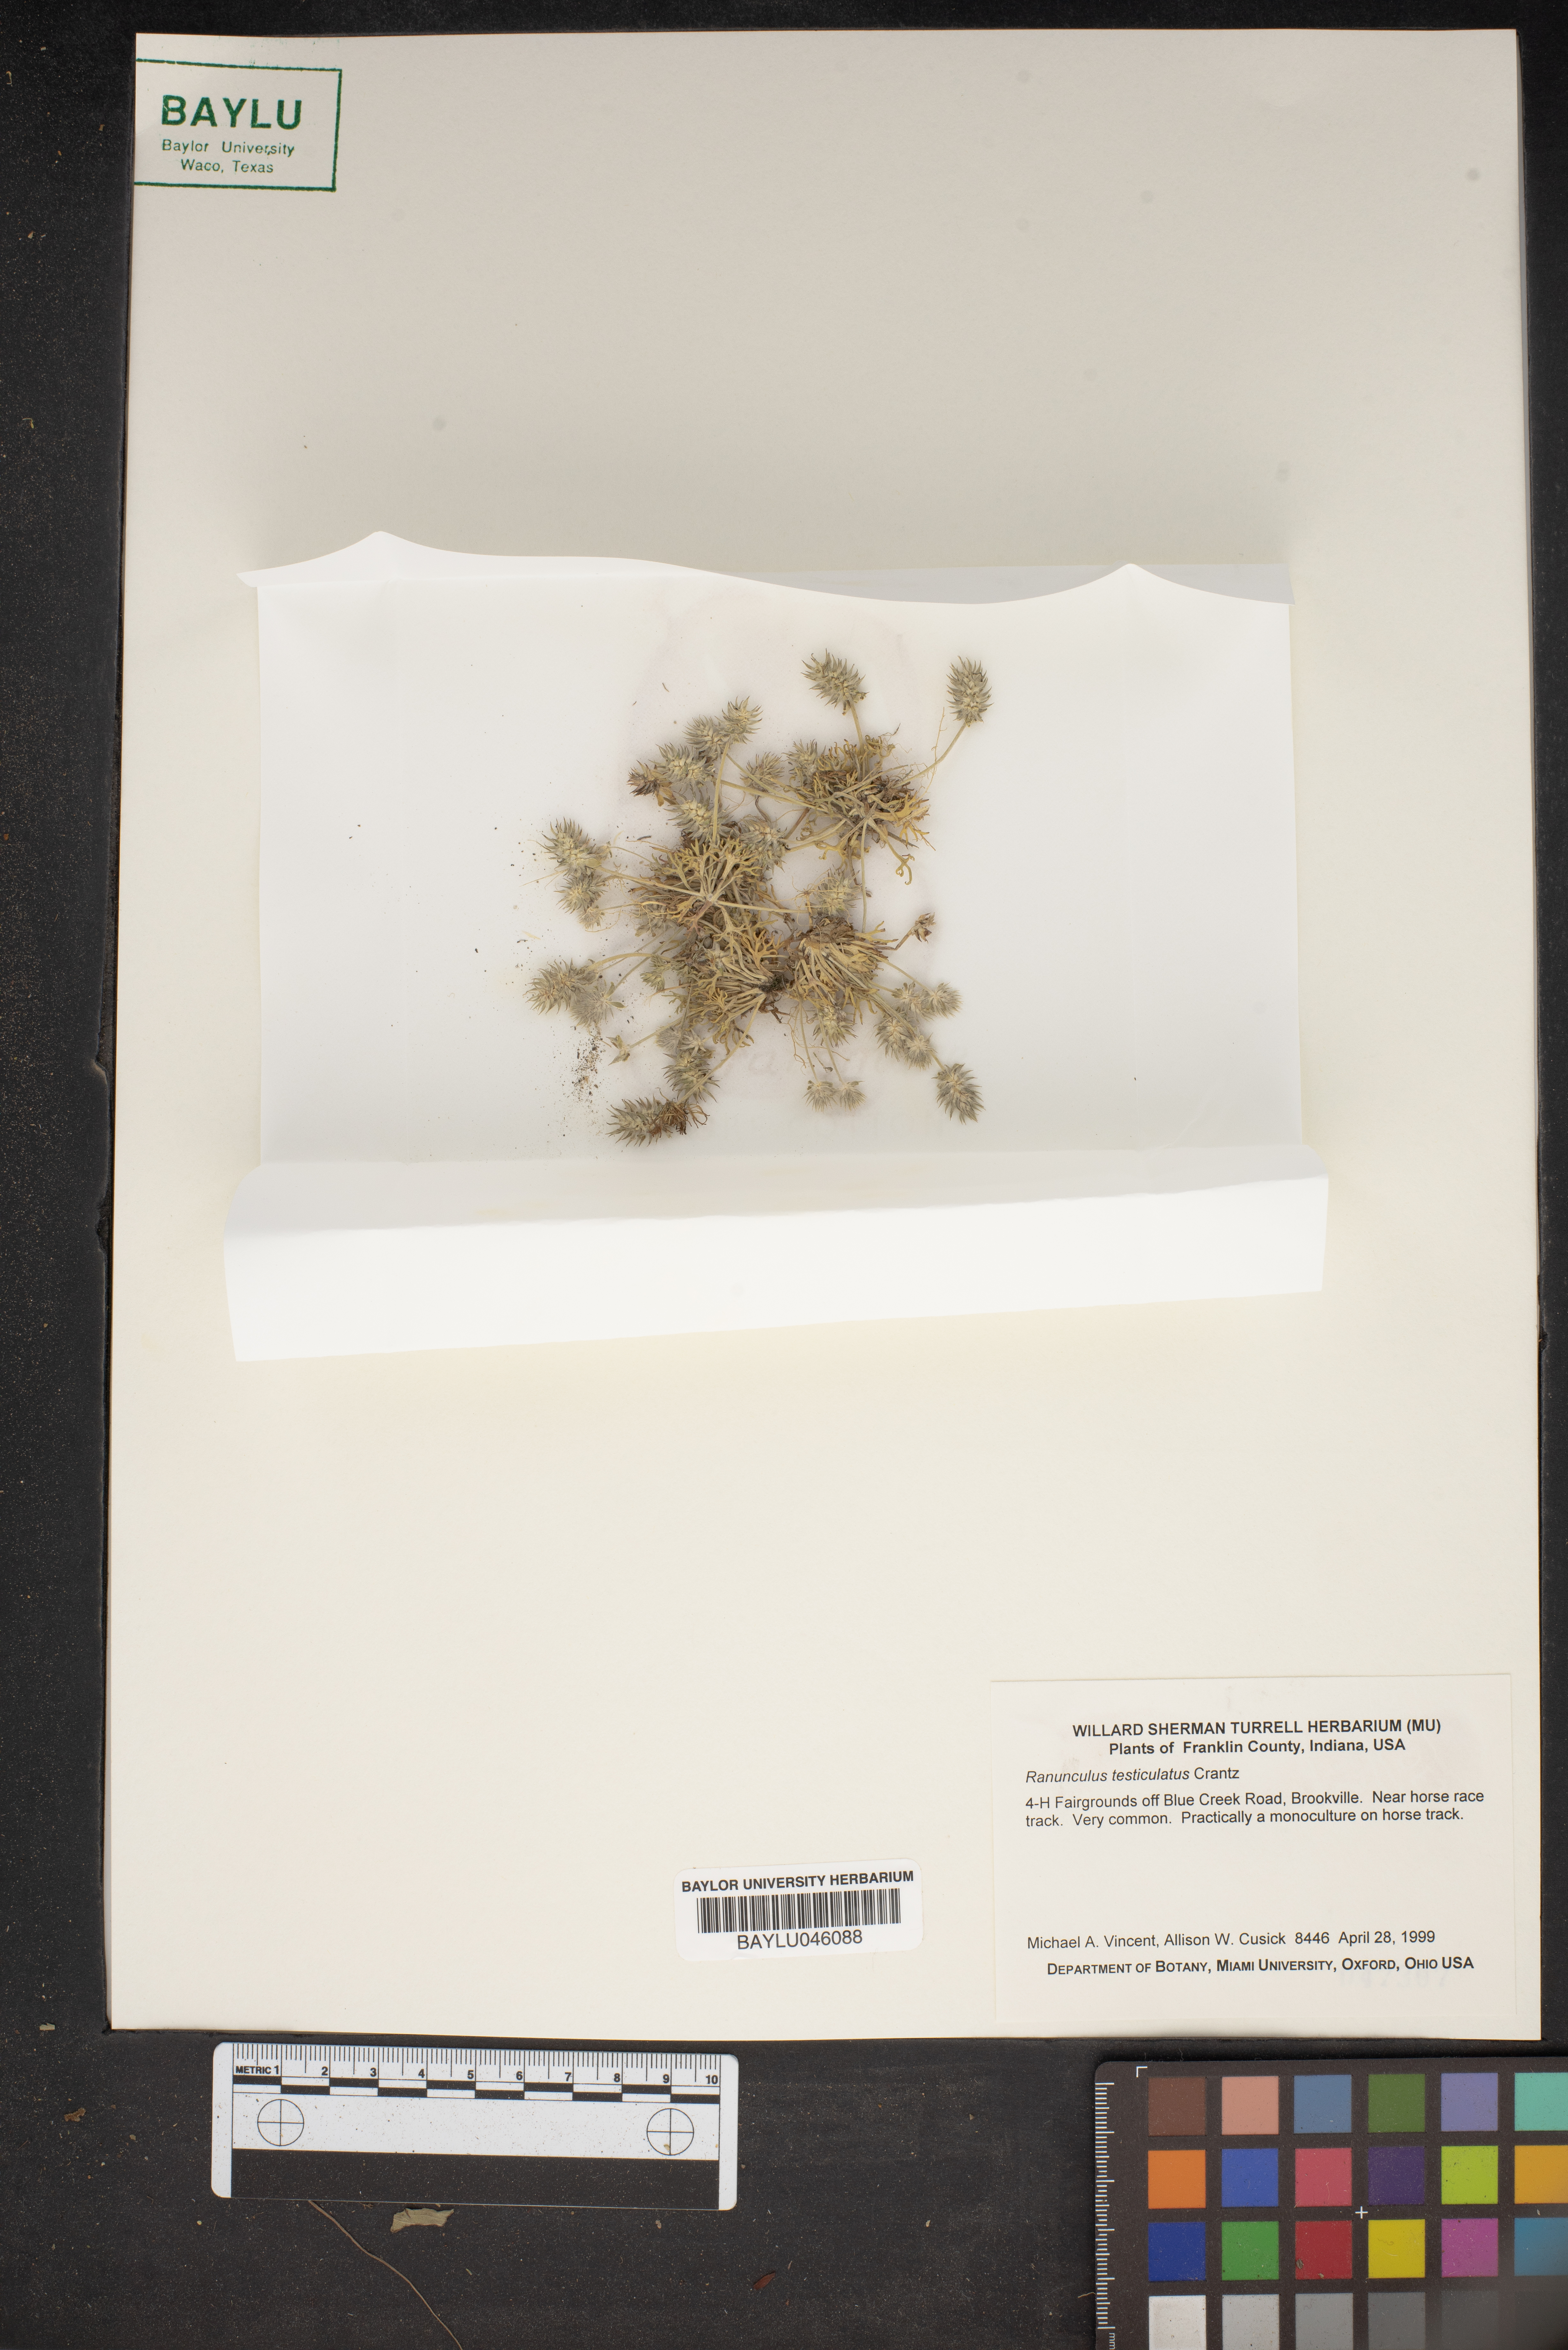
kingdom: Plantae
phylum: Tracheophyta
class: Magnoliopsida
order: Ranunculales
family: Ranunculaceae
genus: Ceratocephala
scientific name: Ceratocephala orthoceras
